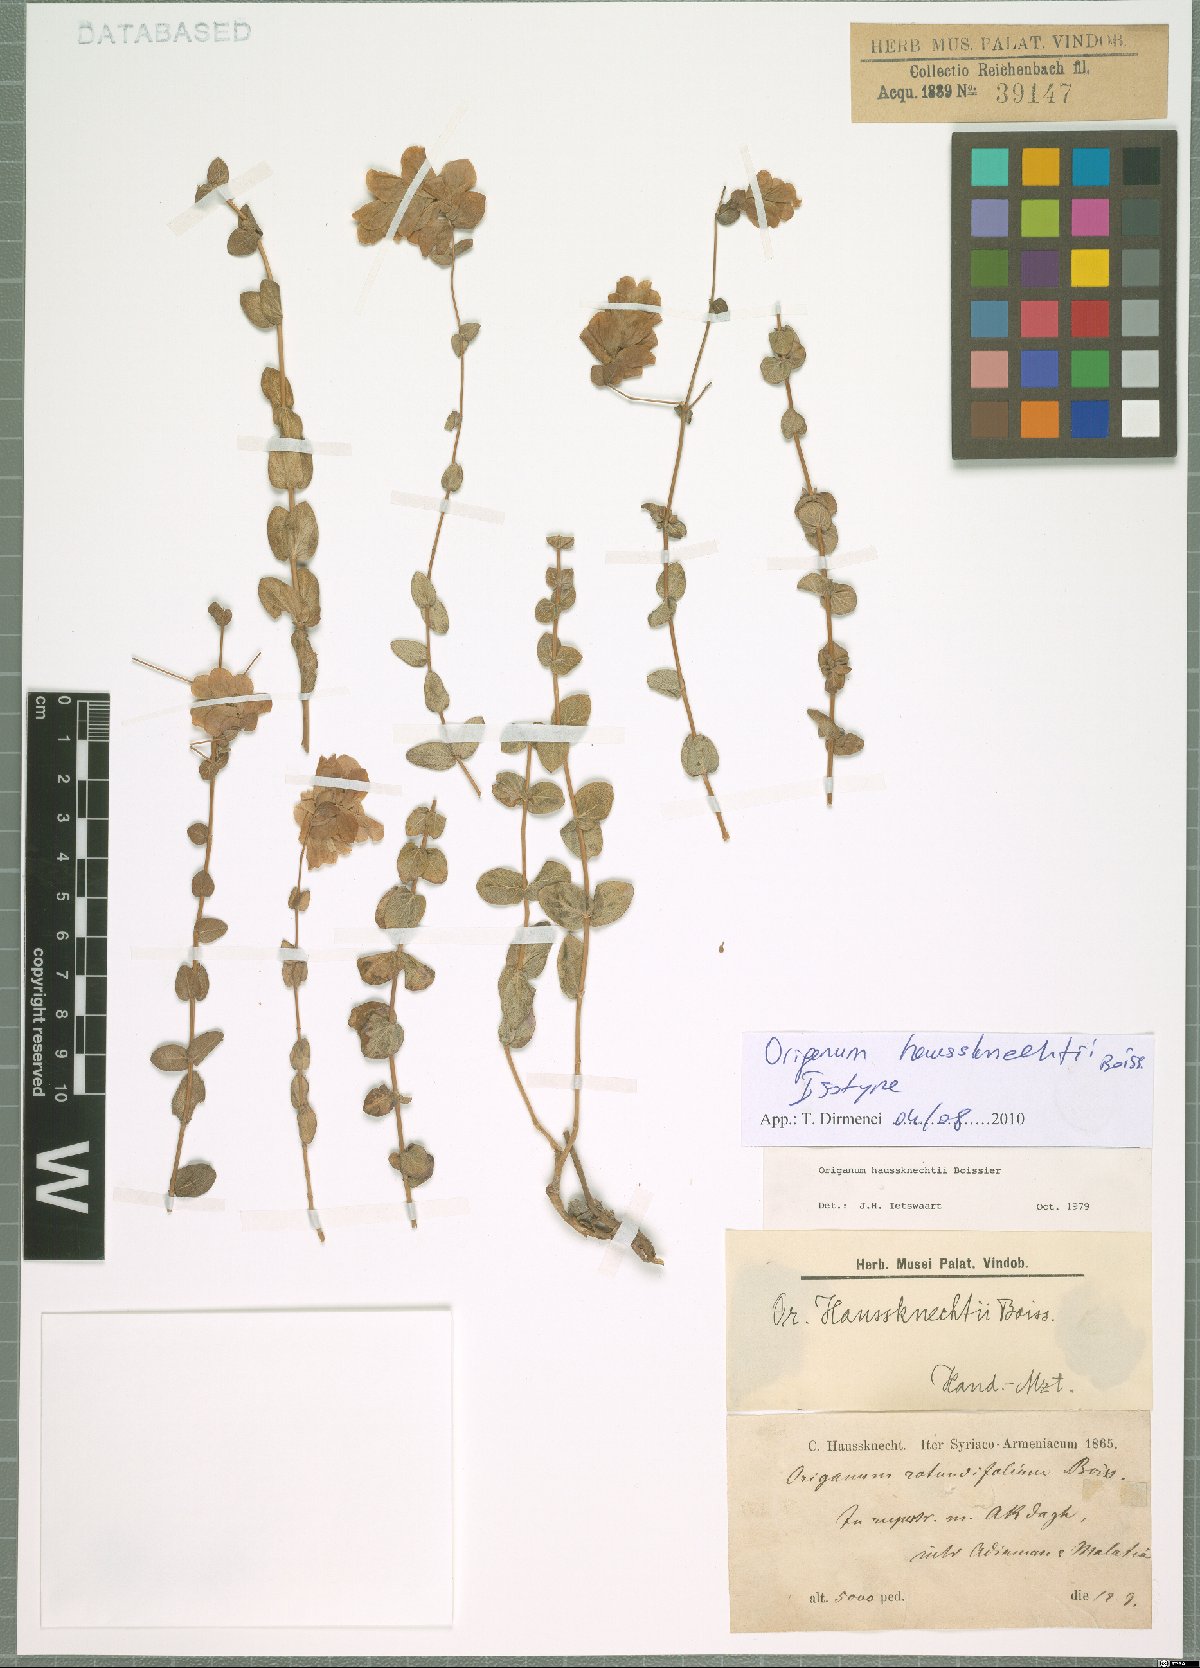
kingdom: Plantae
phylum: Tracheophyta
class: Magnoliopsida
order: Lamiales
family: Lamiaceae
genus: Origanum
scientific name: Origanum haussknechtii
